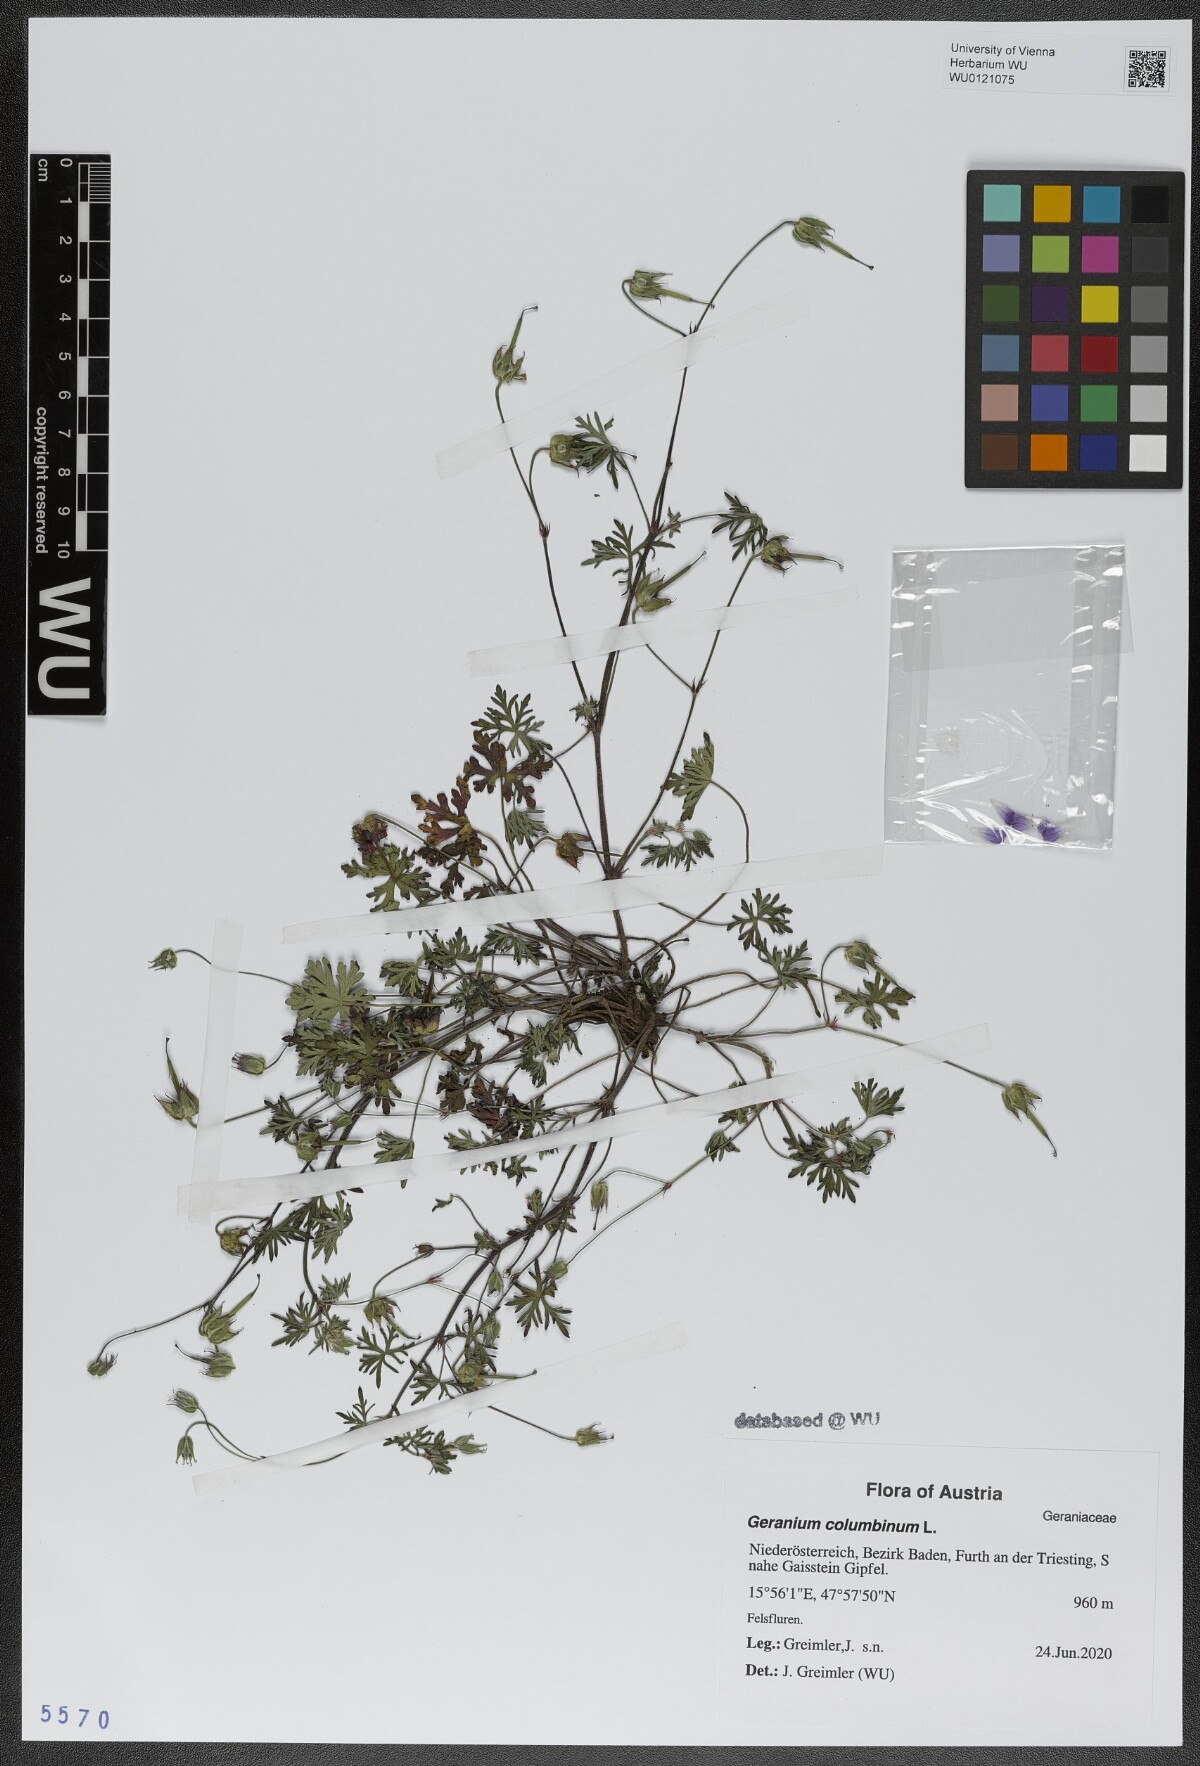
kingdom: Plantae
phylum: Tracheophyta
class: Magnoliopsida
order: Geraniales
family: Geraniaceae
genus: Geranium
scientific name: Geranium columbinum
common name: Long-stalked crane's-bill
